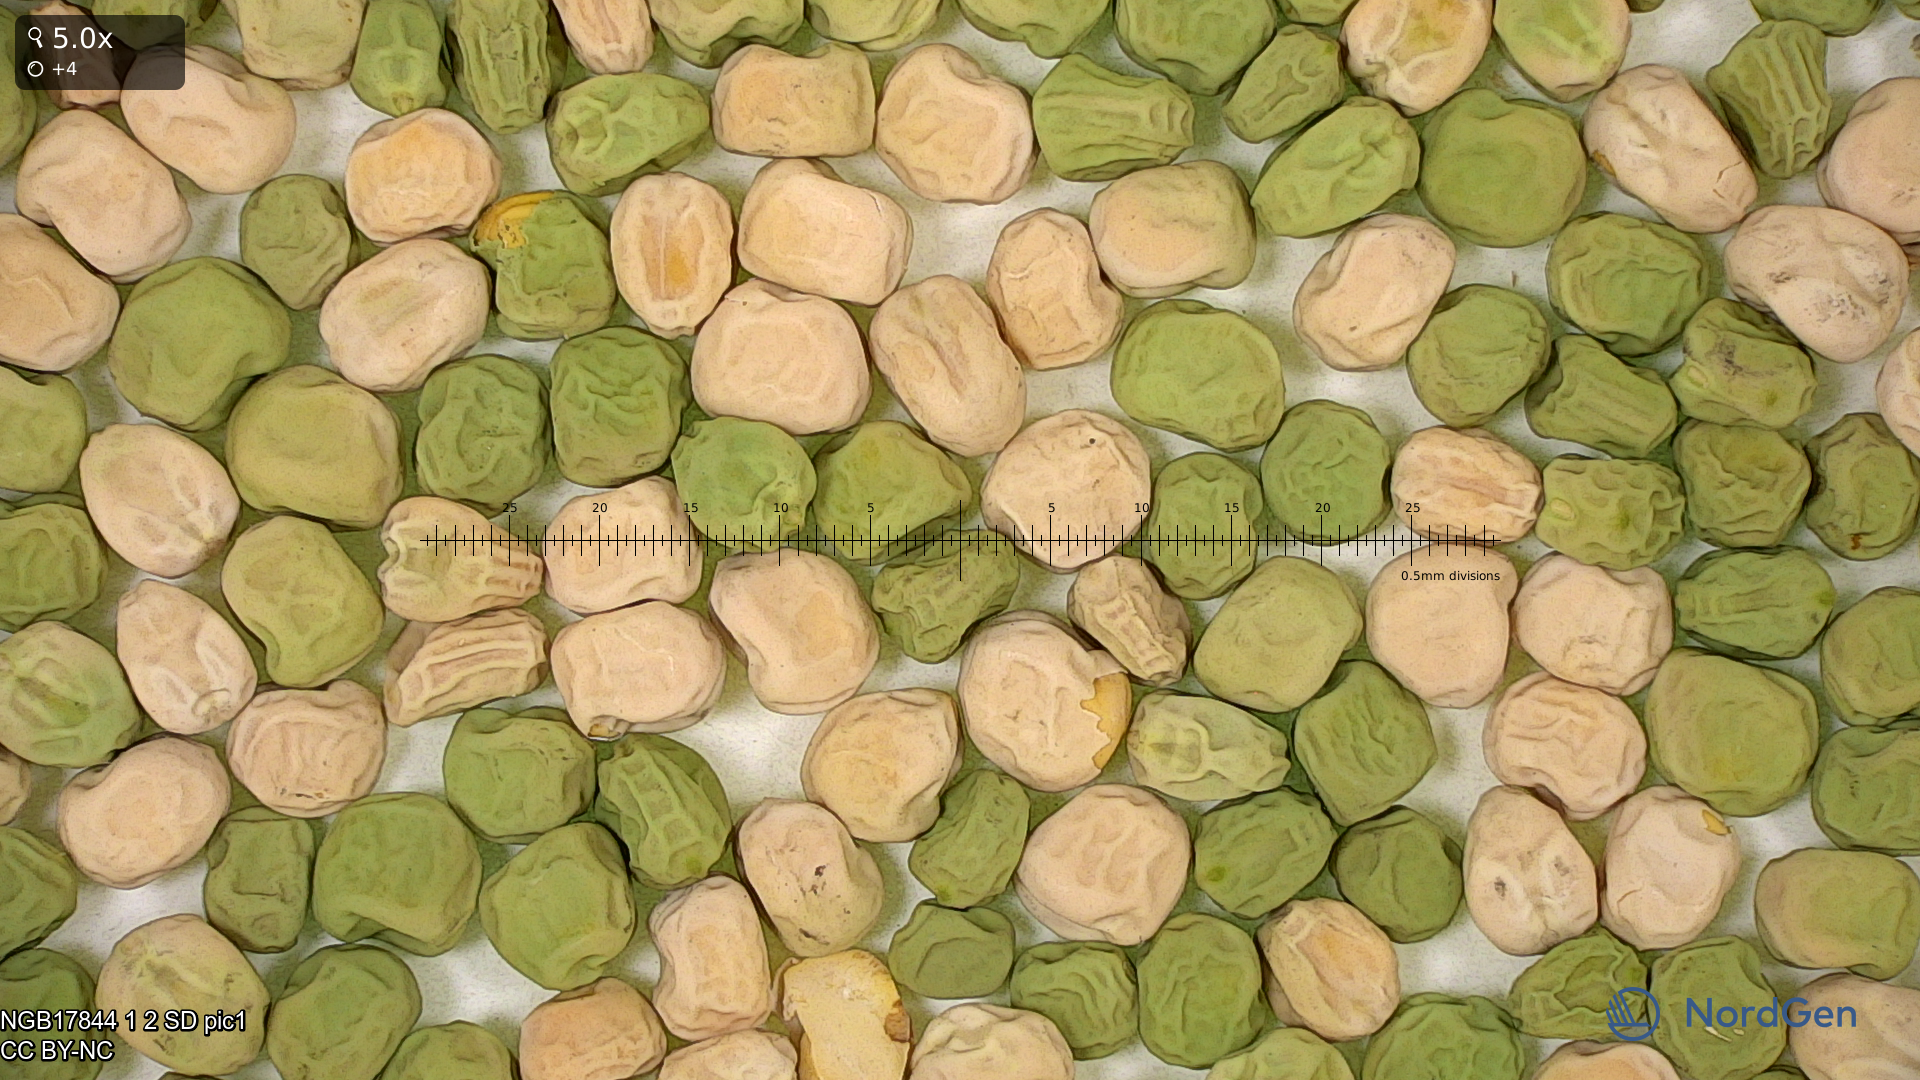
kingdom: Plantae
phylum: Tracheophyta
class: Magnoliopsida
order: Fabales
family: Fabaceae
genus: Lathyrus
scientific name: Lathyrus oleraceus
